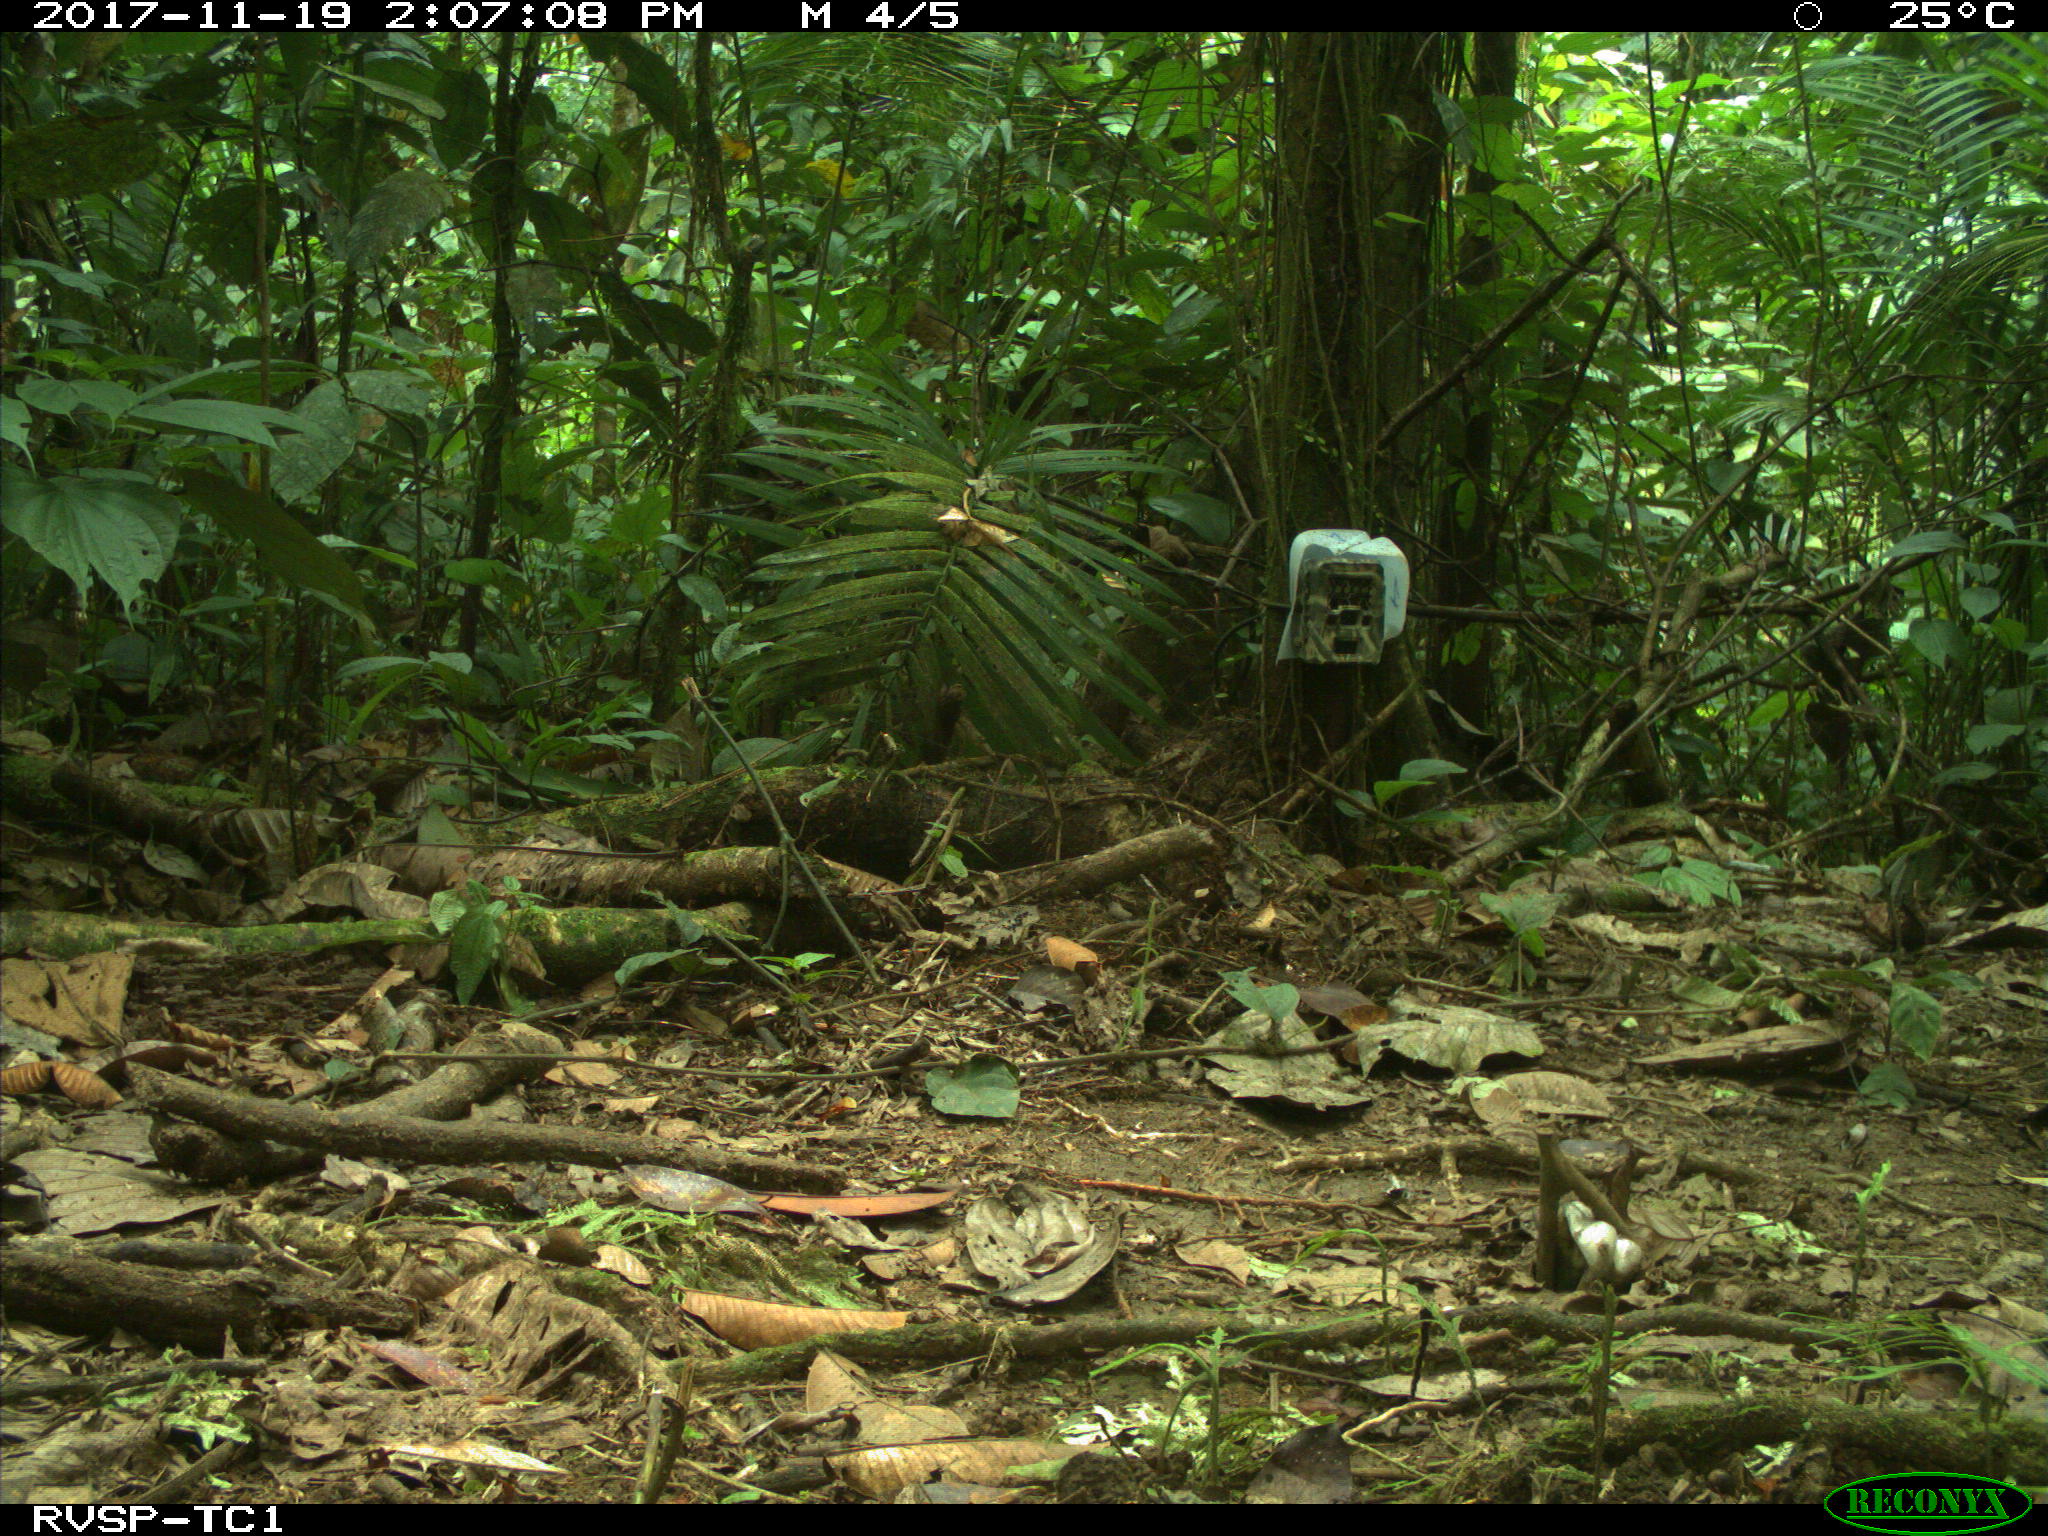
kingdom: Animalia
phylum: Chordata
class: Mammalia
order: Rodentia
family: Dasyproctidae
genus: Dasyprocta
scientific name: Dasyprocta punctata
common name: Central american agouti
